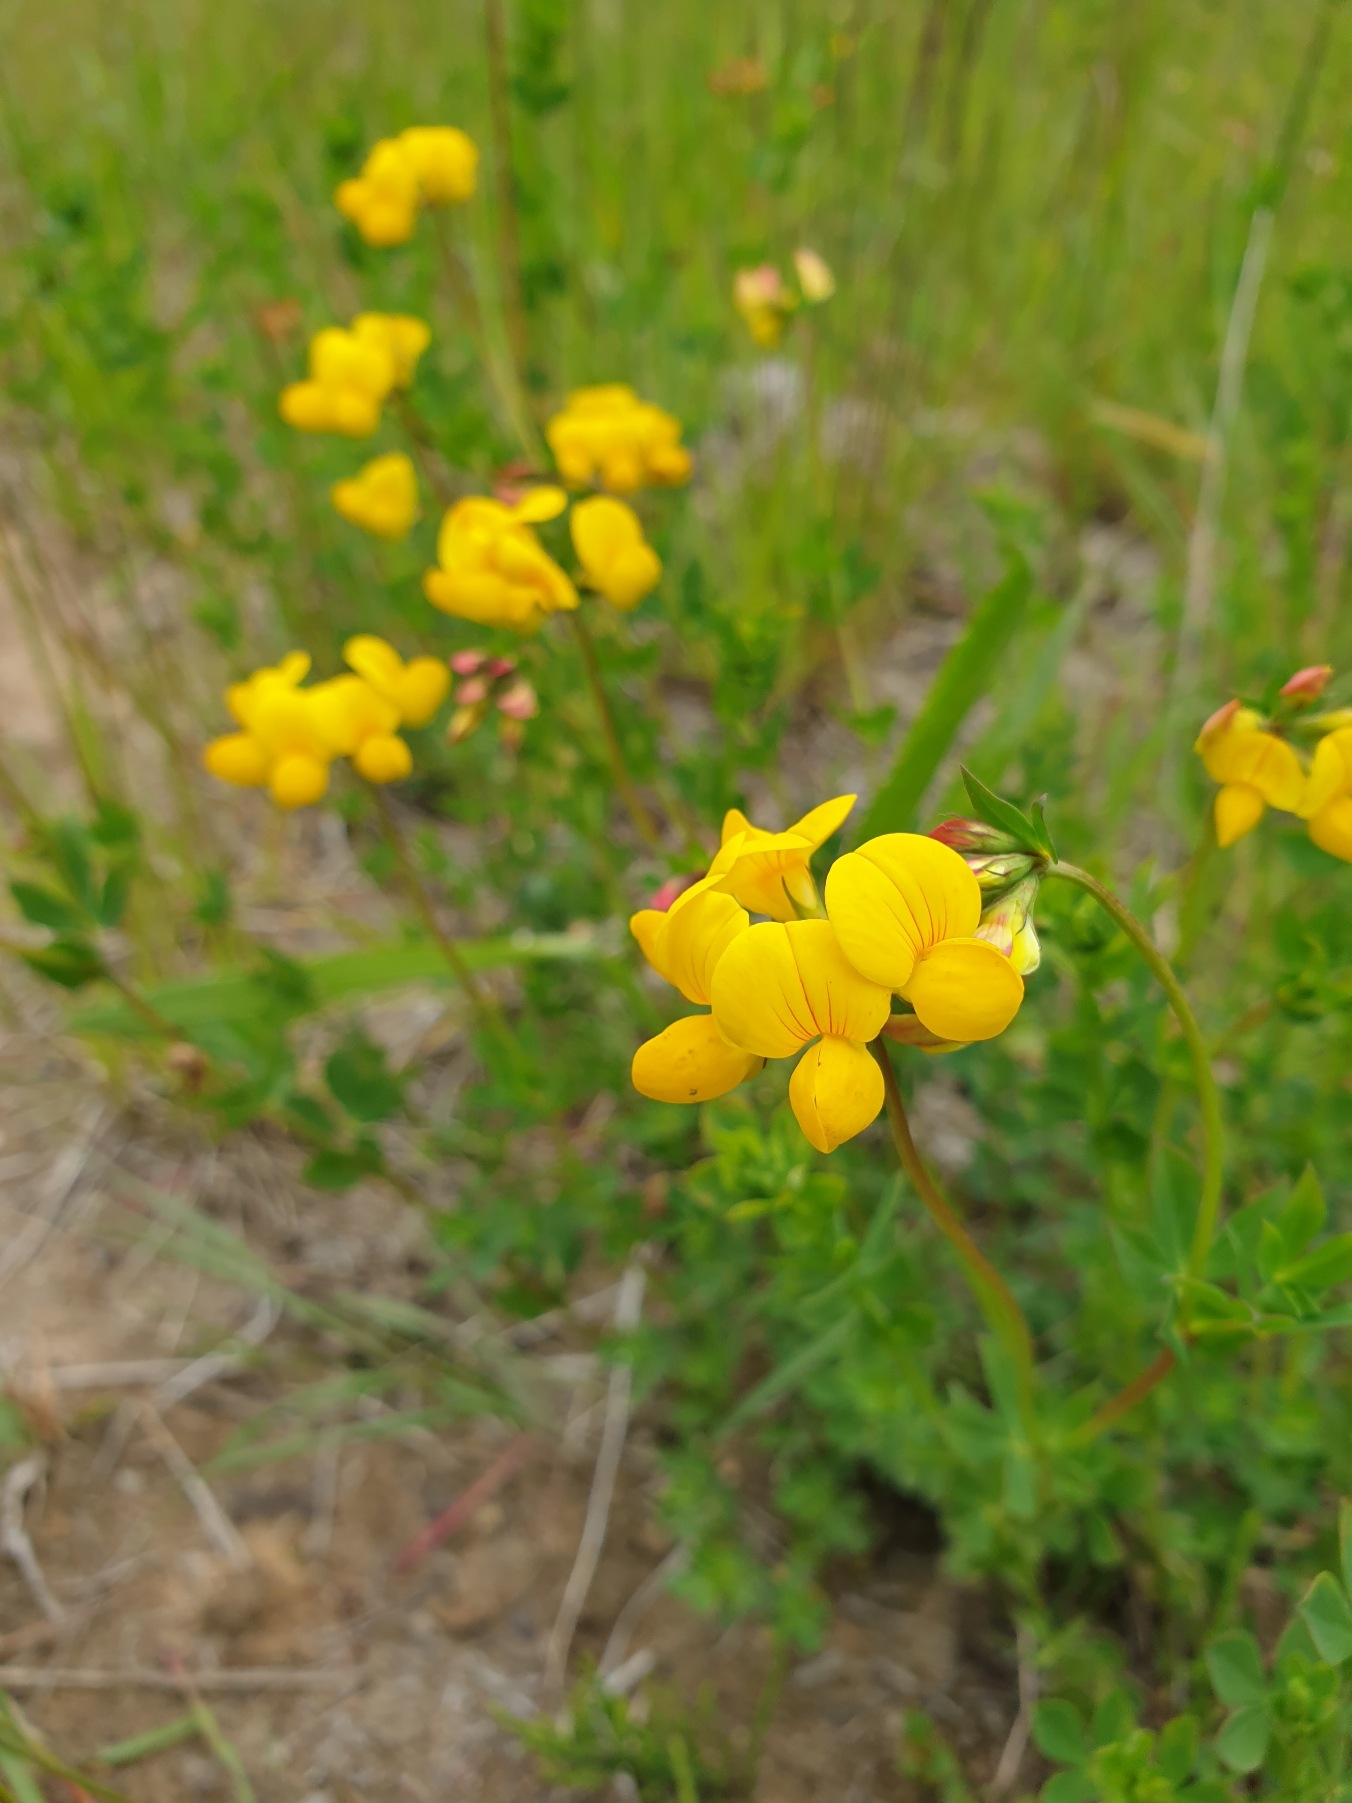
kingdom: Plantae
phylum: Tracheophyta
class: Magnoliopsida
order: Fabales
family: Fabaceae
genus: Lotus
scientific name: Lotus corniculatus
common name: Almindelig kællingetand
